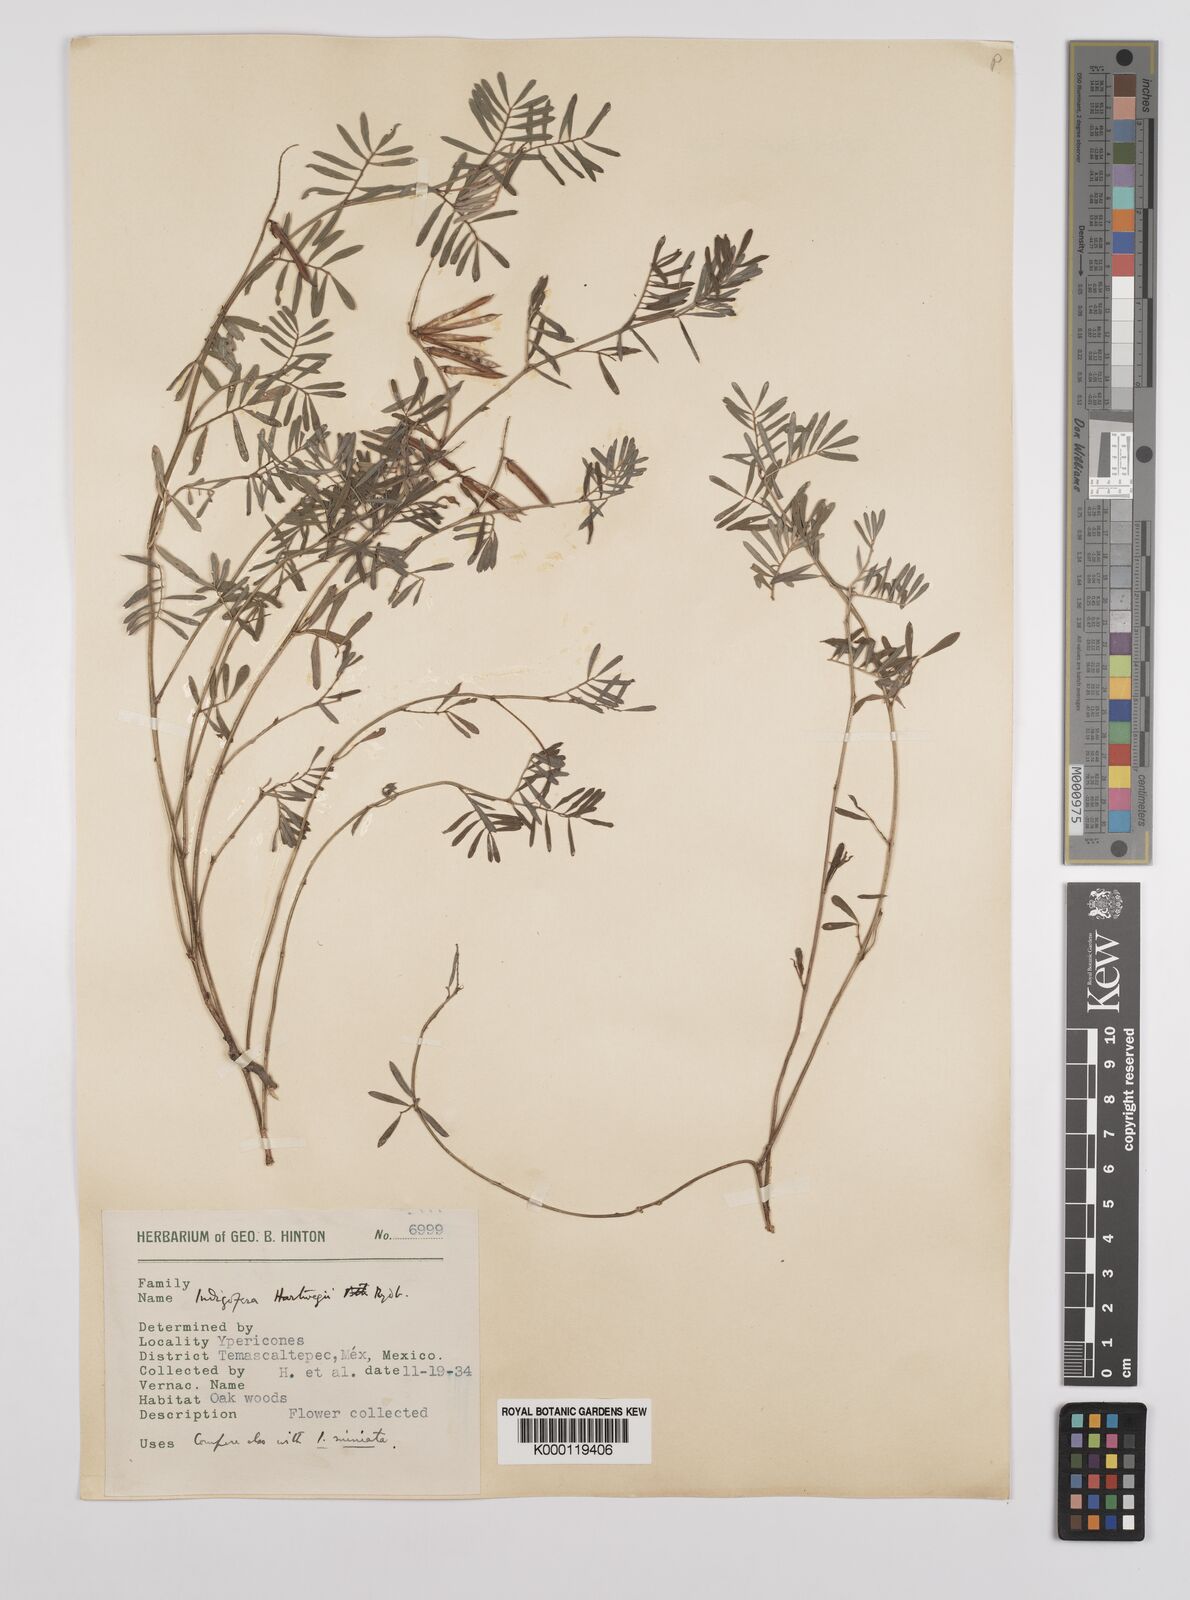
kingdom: Plantae
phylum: Tracheophyta
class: Magnoliopsida
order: Fabales
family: Fabaceae
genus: Indigofera
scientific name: Indigofera miniata
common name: Coast indigo
